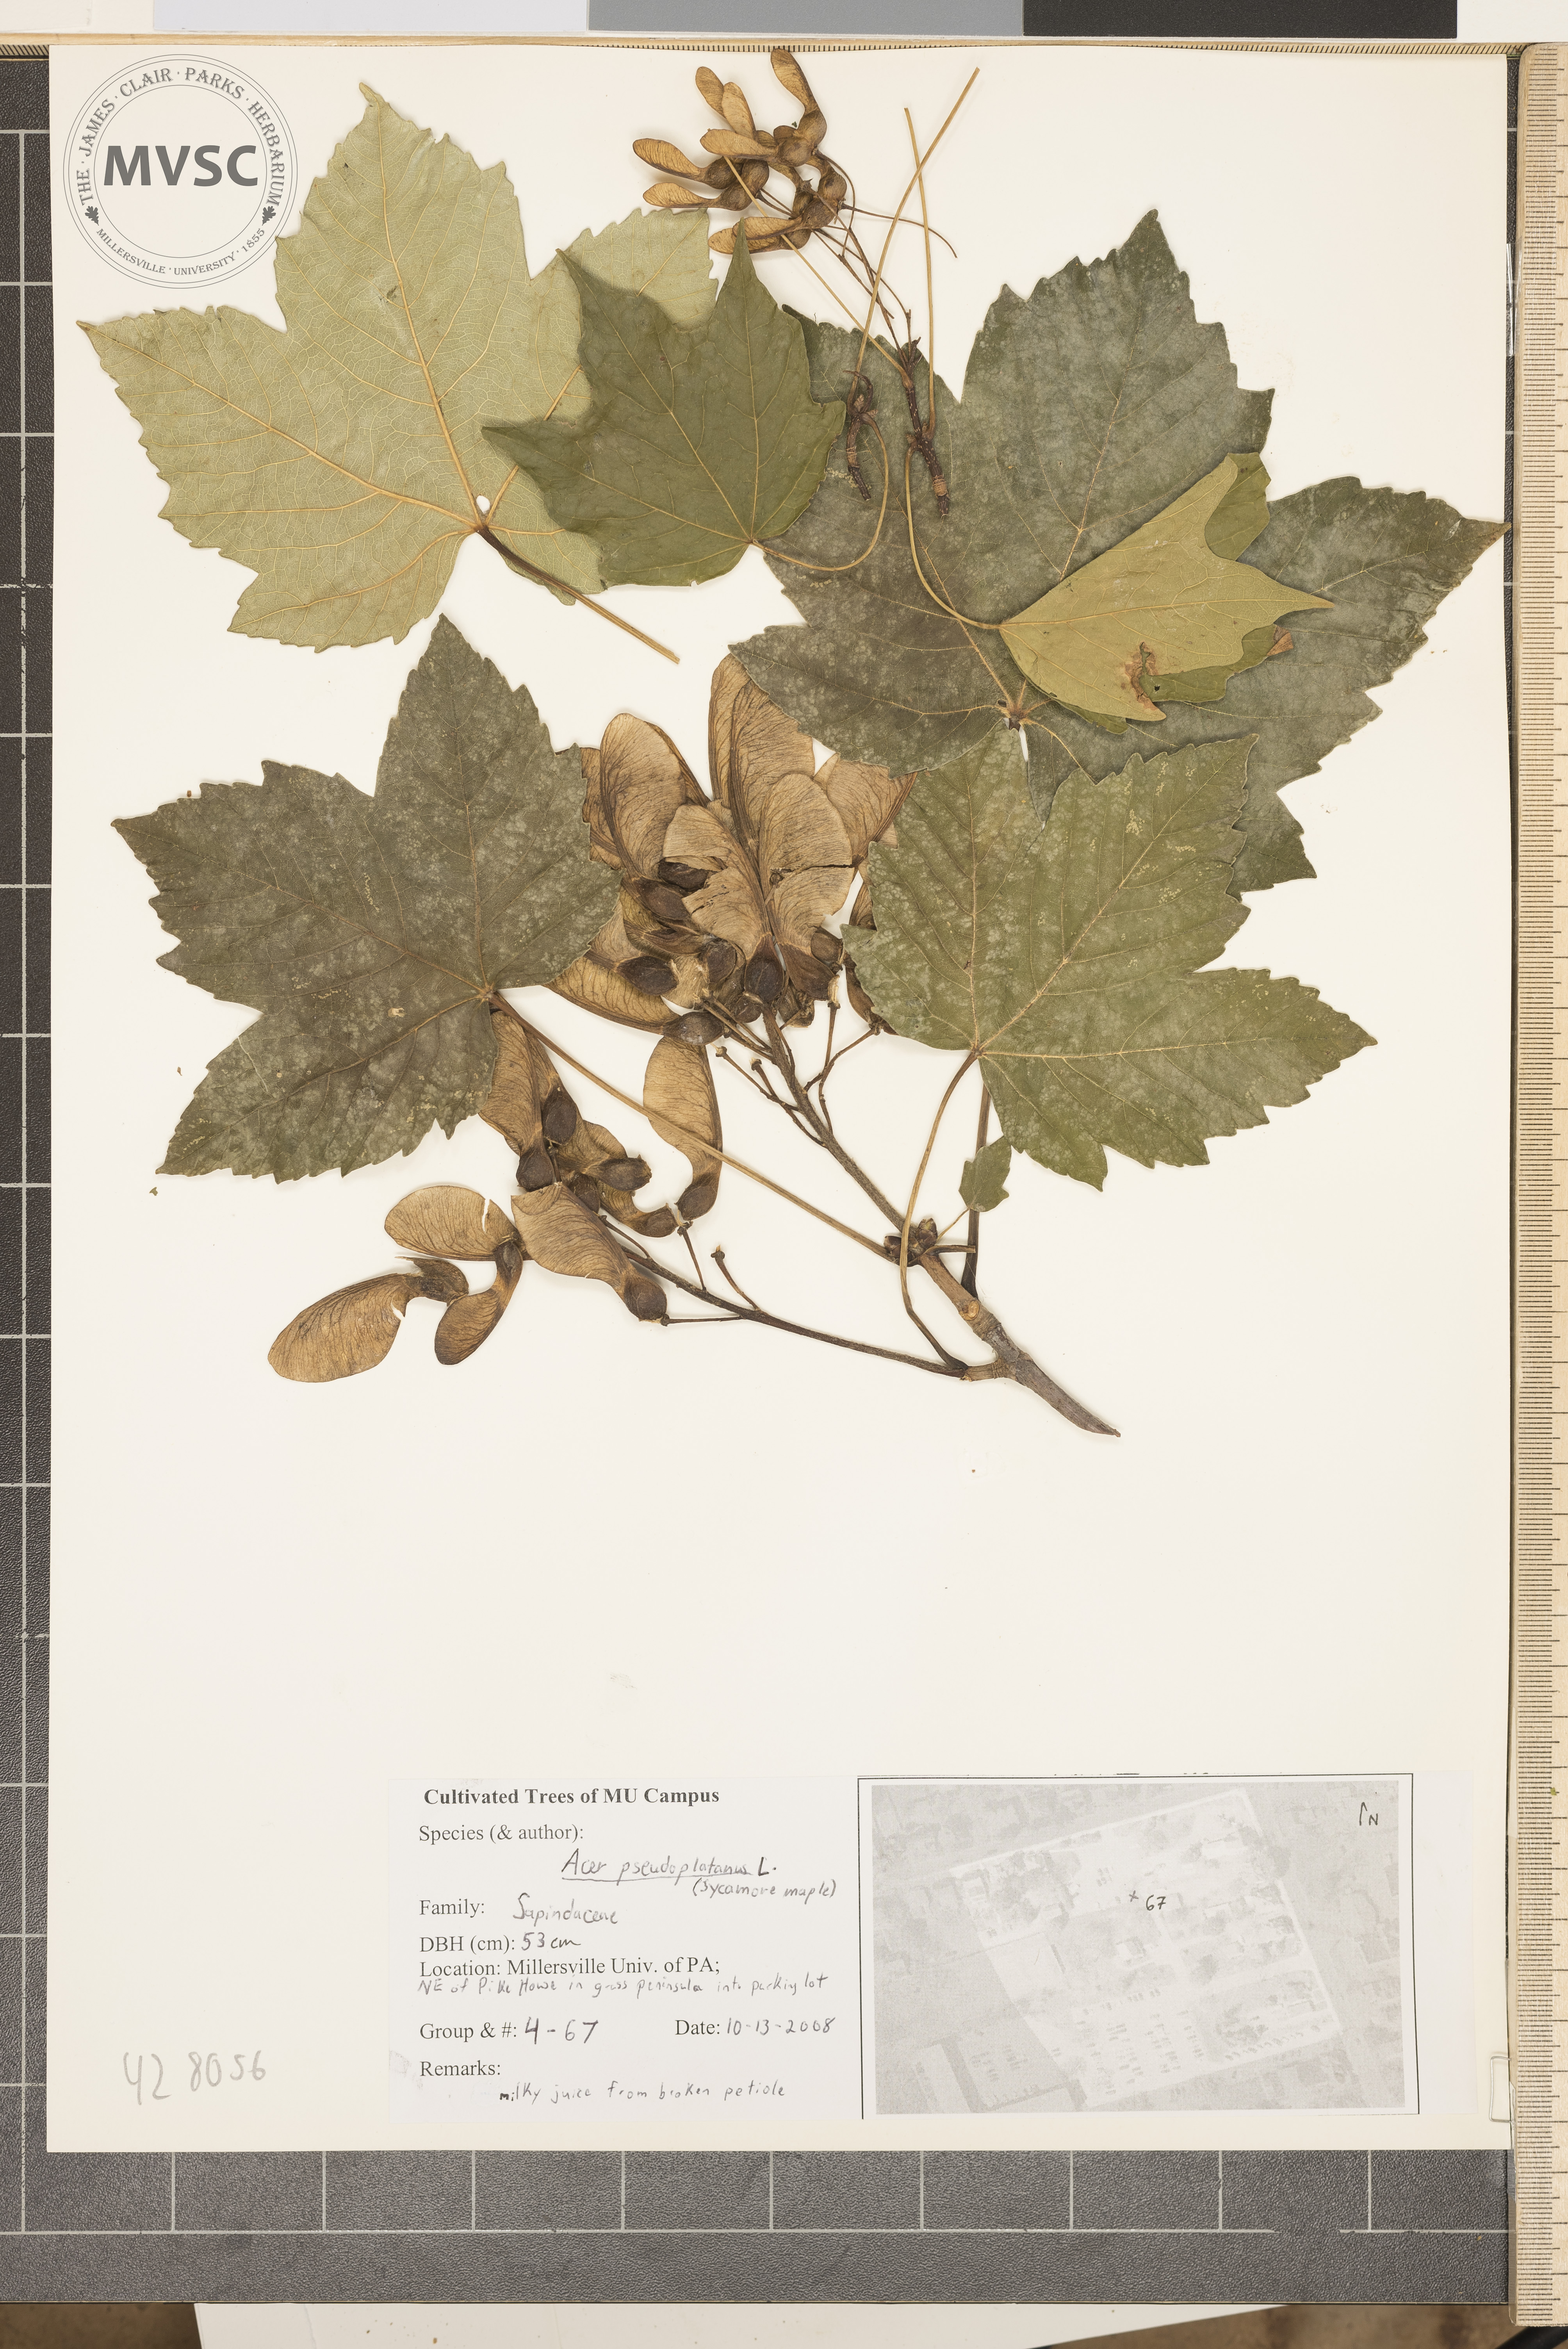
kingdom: Plantae
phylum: Tracheophyta
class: Magnoliopsida
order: Sapindales
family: Sapindaceae
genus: Acer
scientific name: Acer pseudoplatanus
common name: Sycamore Maple
